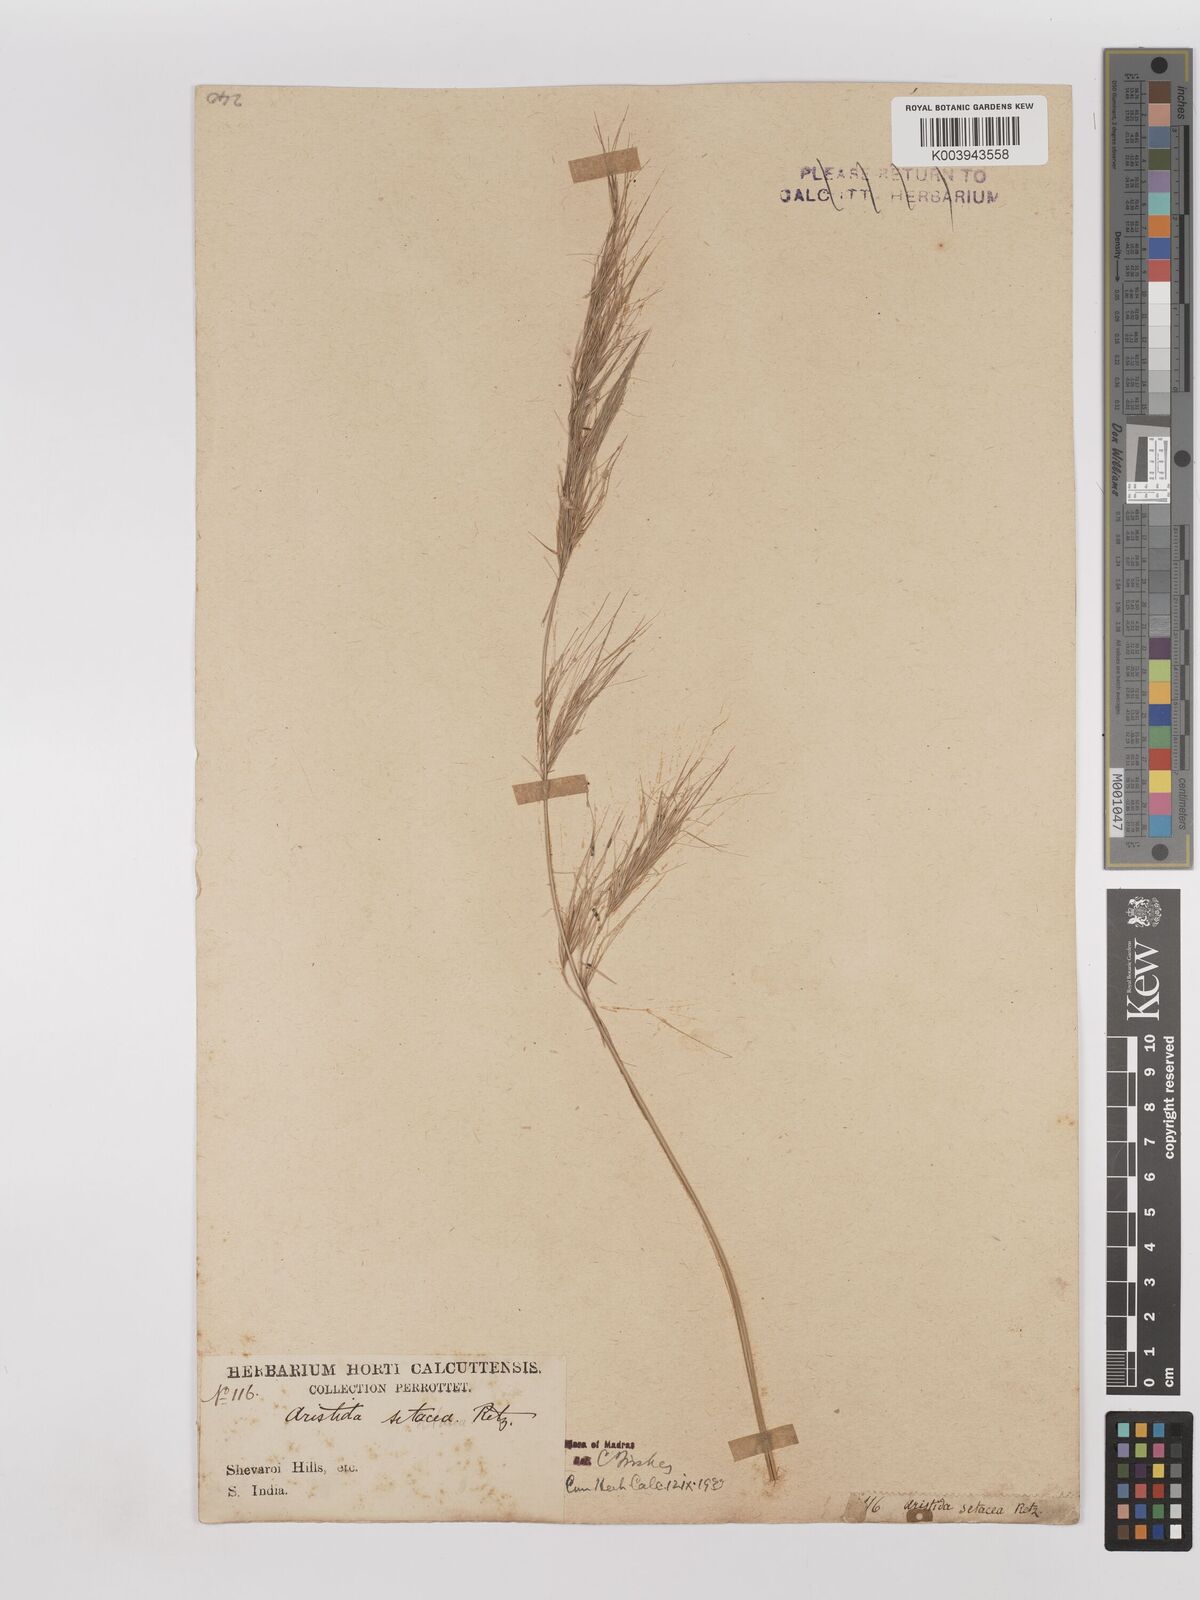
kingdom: Plantae
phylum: Tracheophyta
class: Liliopsida
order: Poales
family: Poaceae
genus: Aristida
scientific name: Aristida setacea
